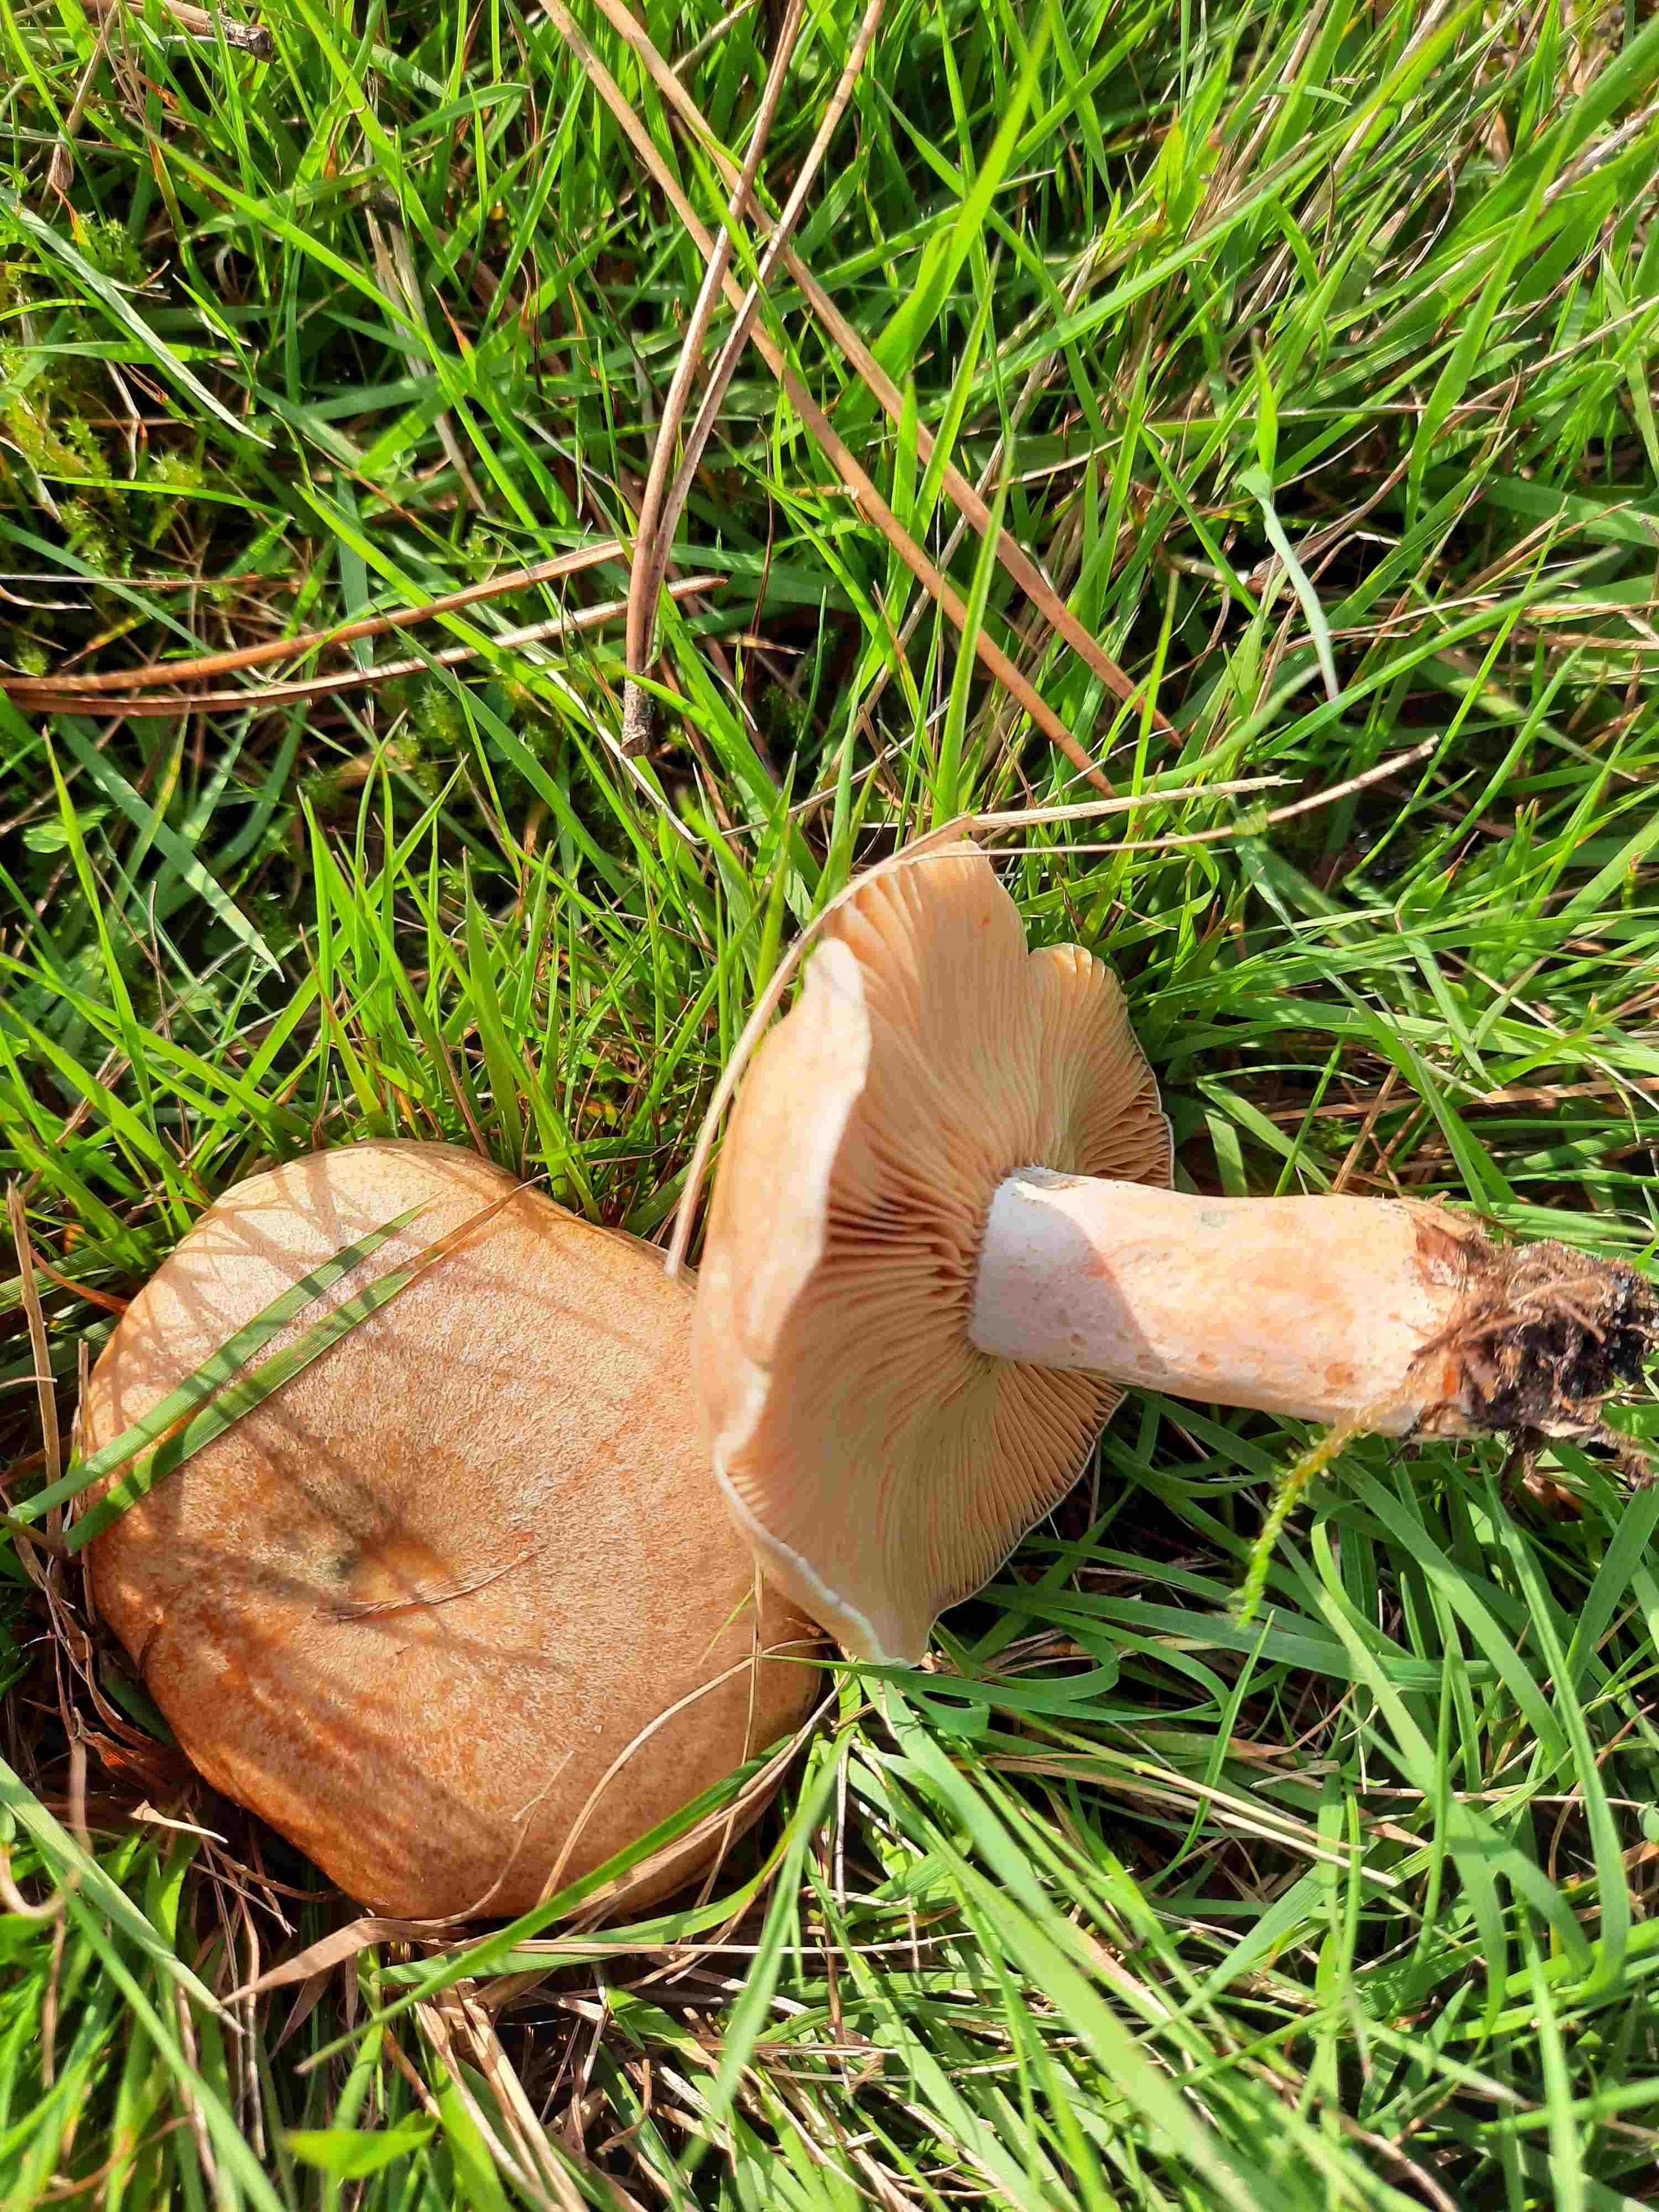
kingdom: Fungi
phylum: Basidiomycota
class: Agaricomycetes
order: Russulales
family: Russulaceae
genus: Lactarius
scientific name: Lactarius deliciosus
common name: velsmagende mælkehat
